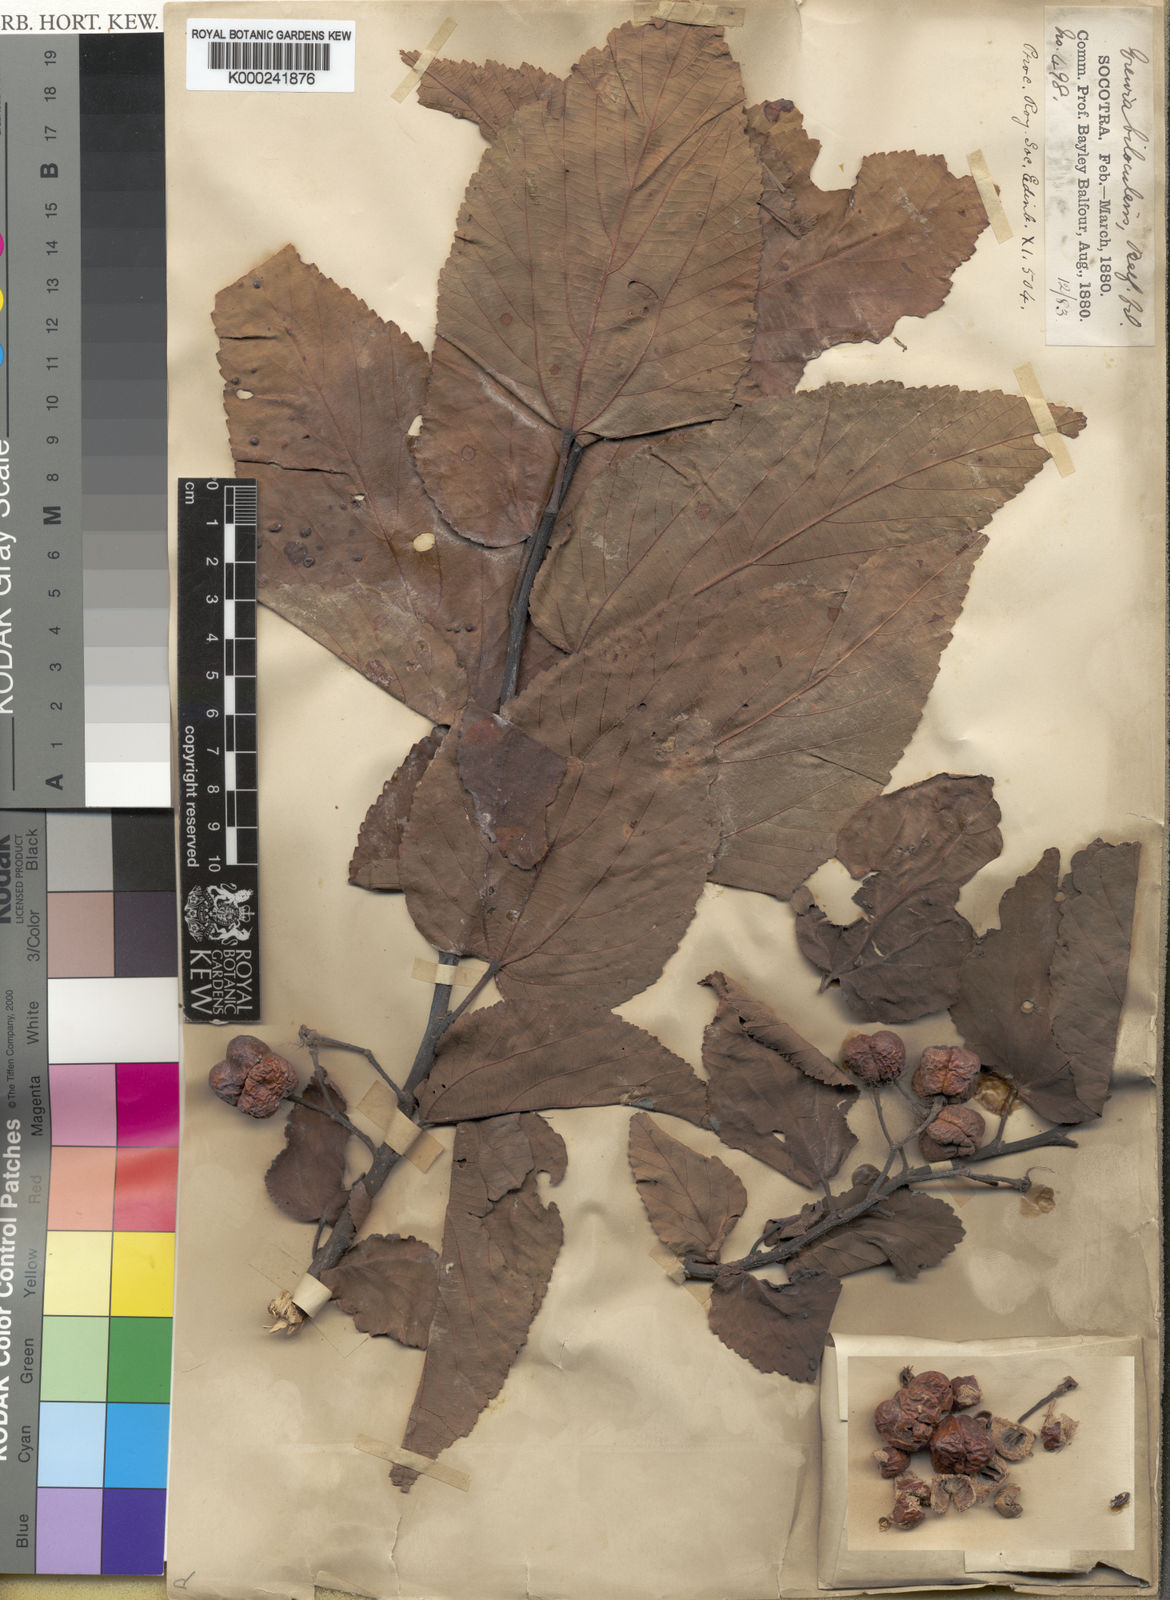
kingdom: Plantae
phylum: Tracheophyta
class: Magnoliopsida
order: Malvales
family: Malvaceae
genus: Grewia
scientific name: Grewia bilocularis
